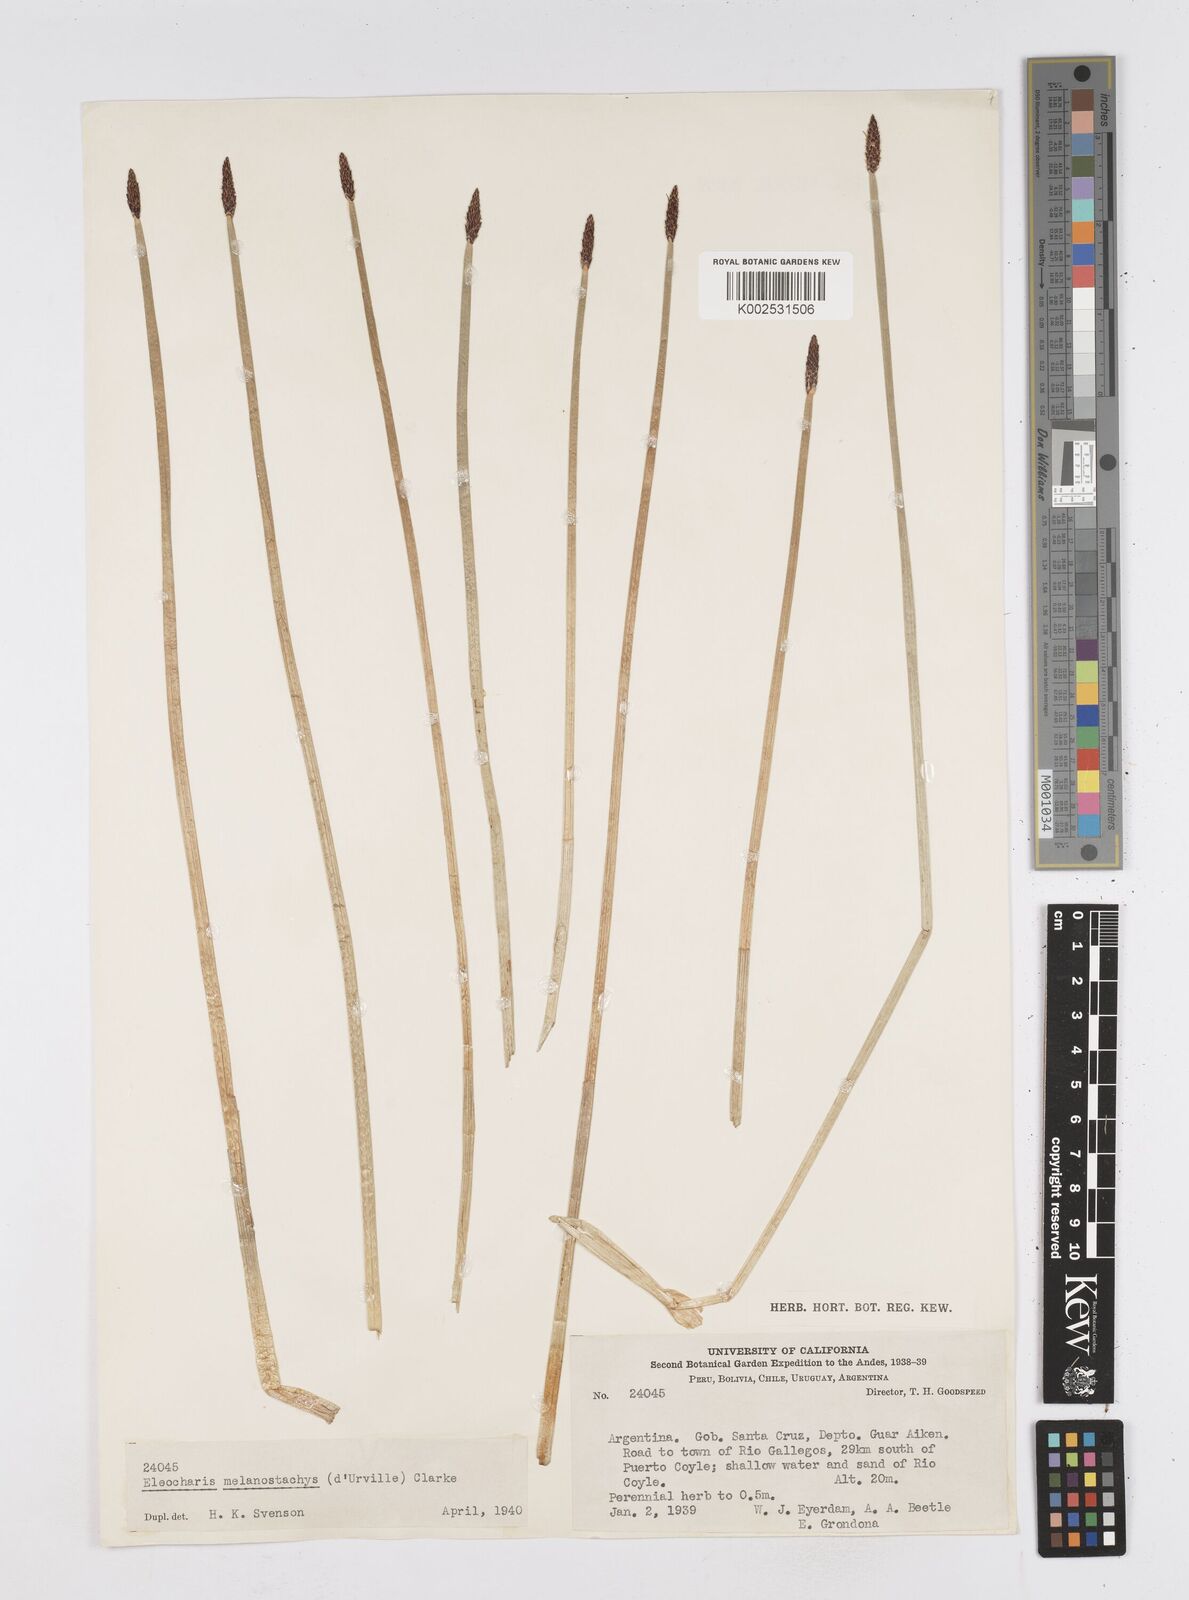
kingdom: Plantae
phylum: Tracheophyta
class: Liliopsida
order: Poales
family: Cyperaceae
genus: Eleocharis
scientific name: Eleocharis melanostachys
